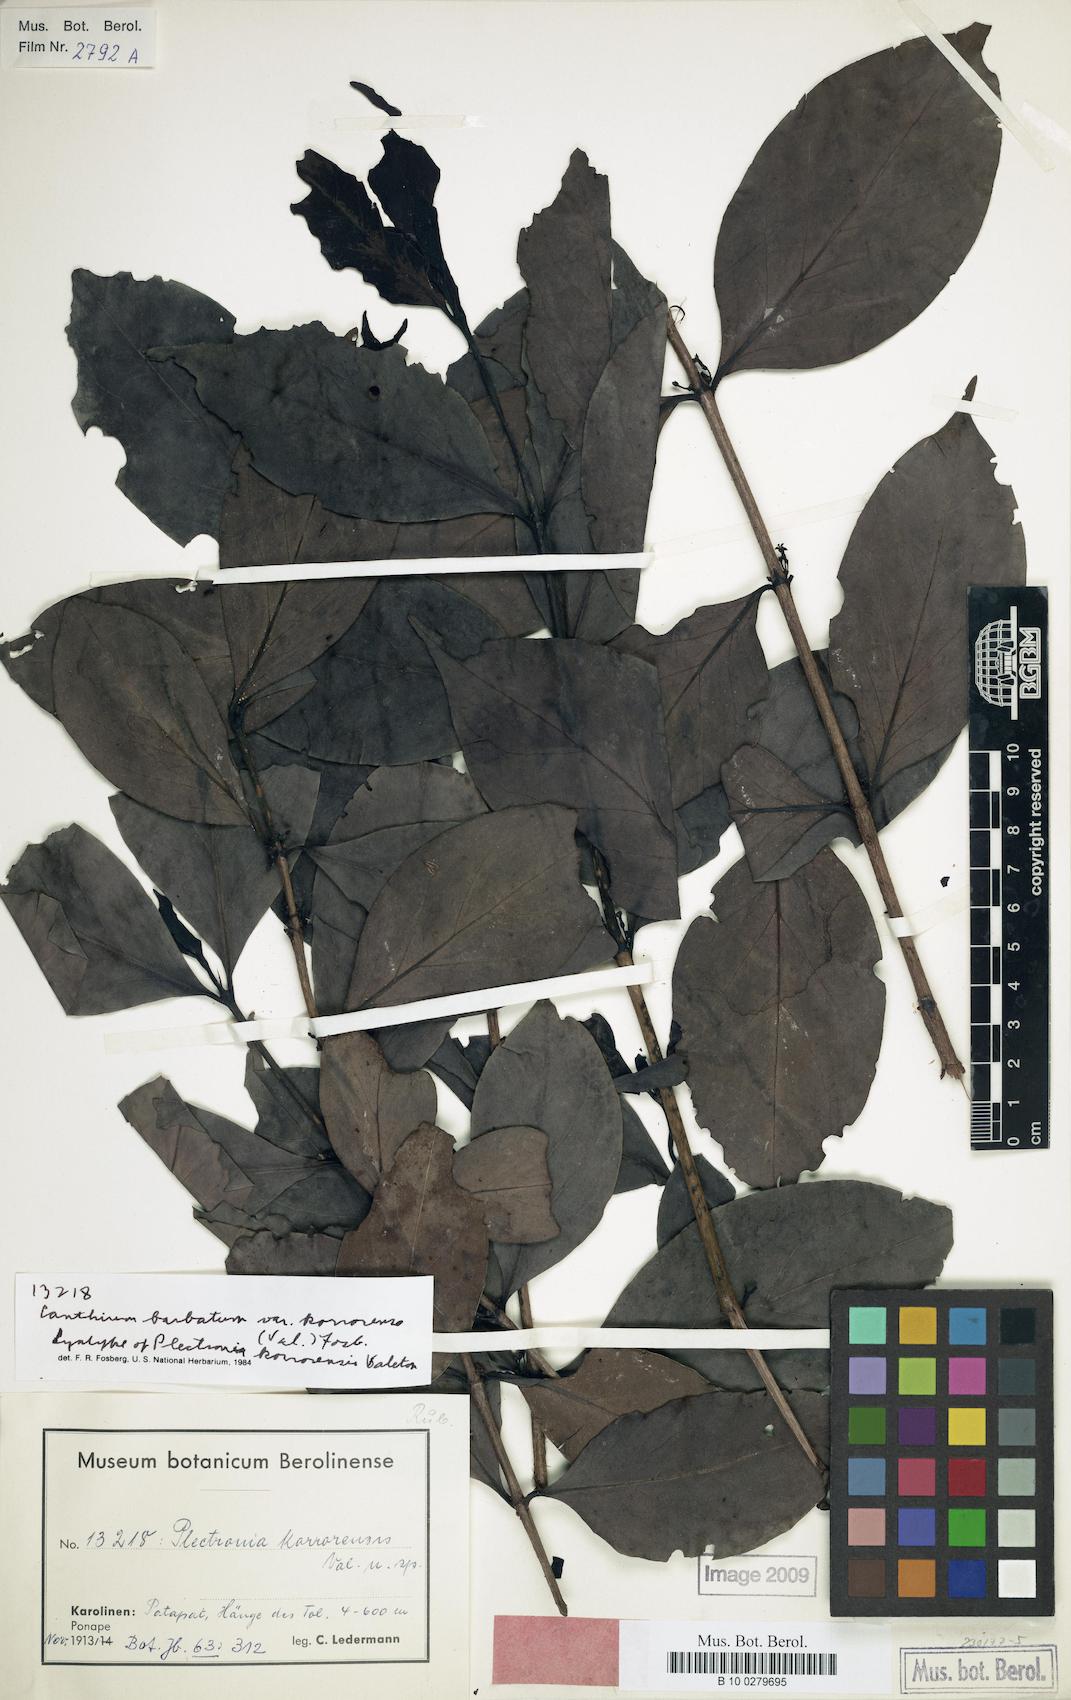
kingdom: Plantae
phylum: Tracheophyta
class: Magnoliopsida
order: Gentianales
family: Rubiaceae
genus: Cyclophyllum
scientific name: Cyclophyllum barbatum
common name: Cyclophyllum
